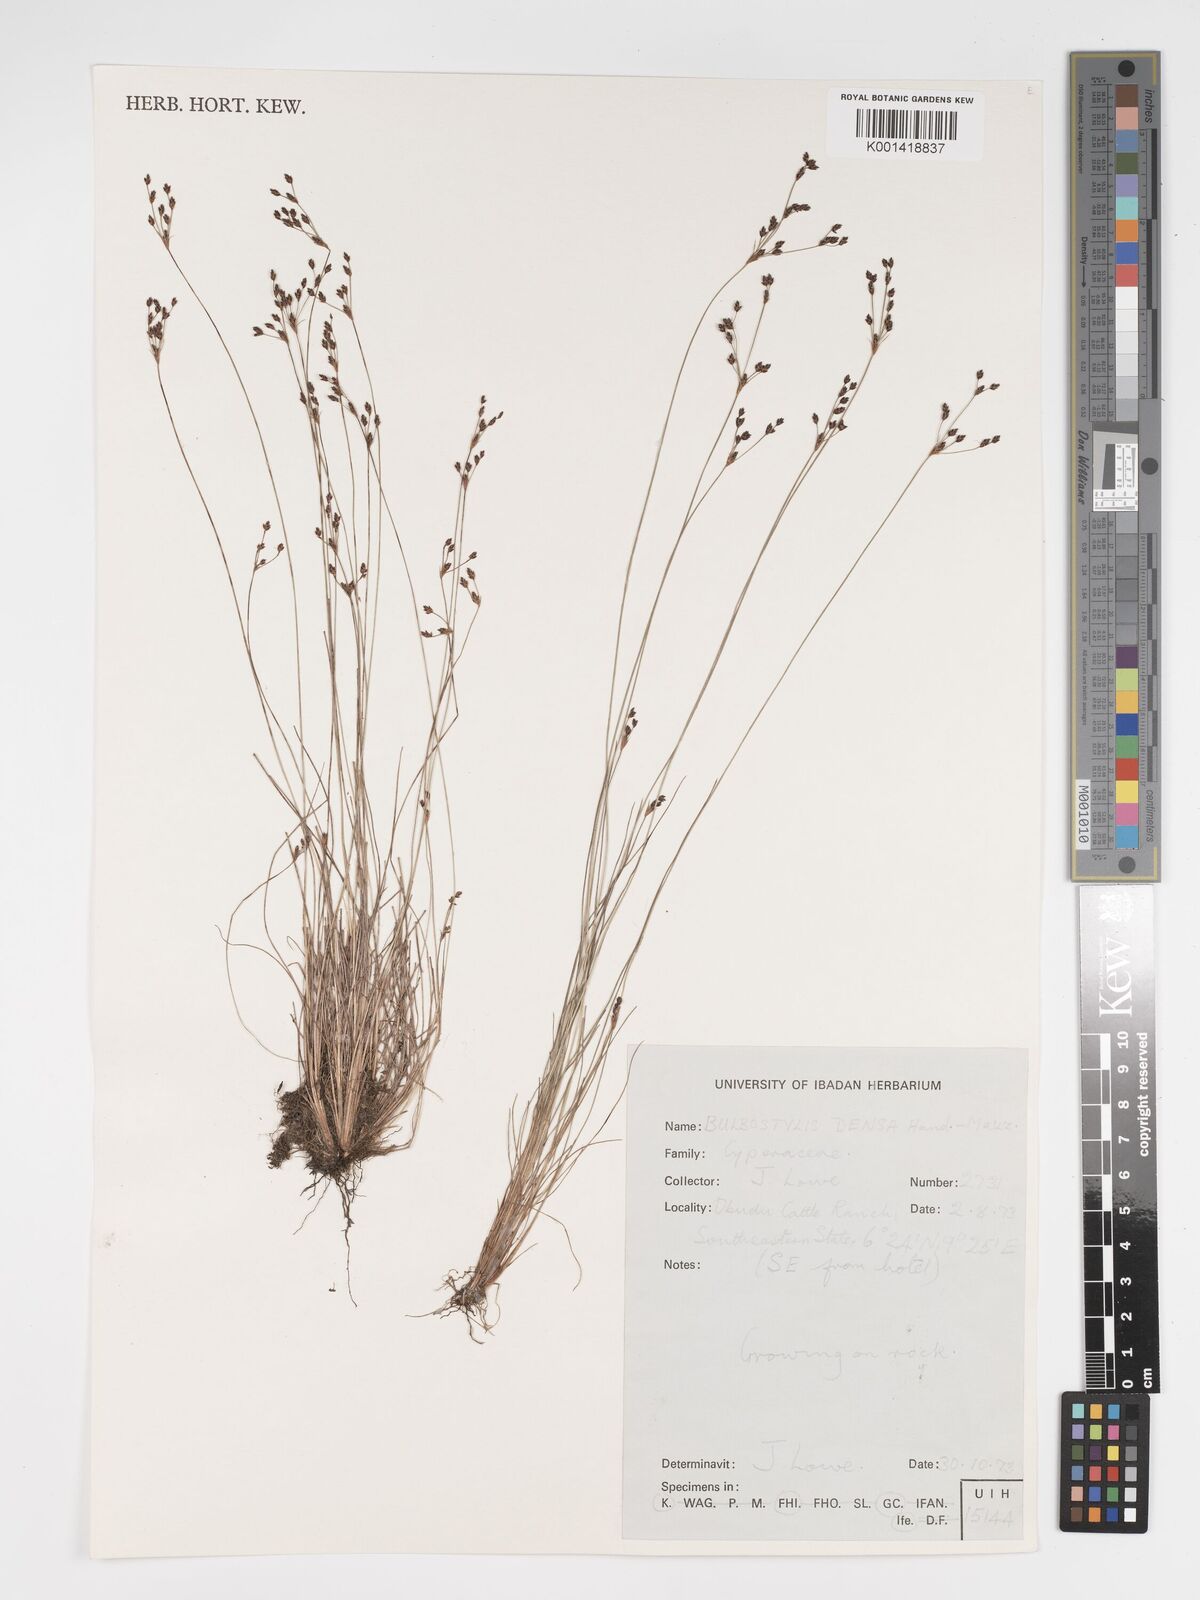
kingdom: Plantae
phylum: Tracheophyta
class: Liliopsida
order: Poales
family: Cyperaceae
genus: Bulbostylis
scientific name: Bulbostylis densa
